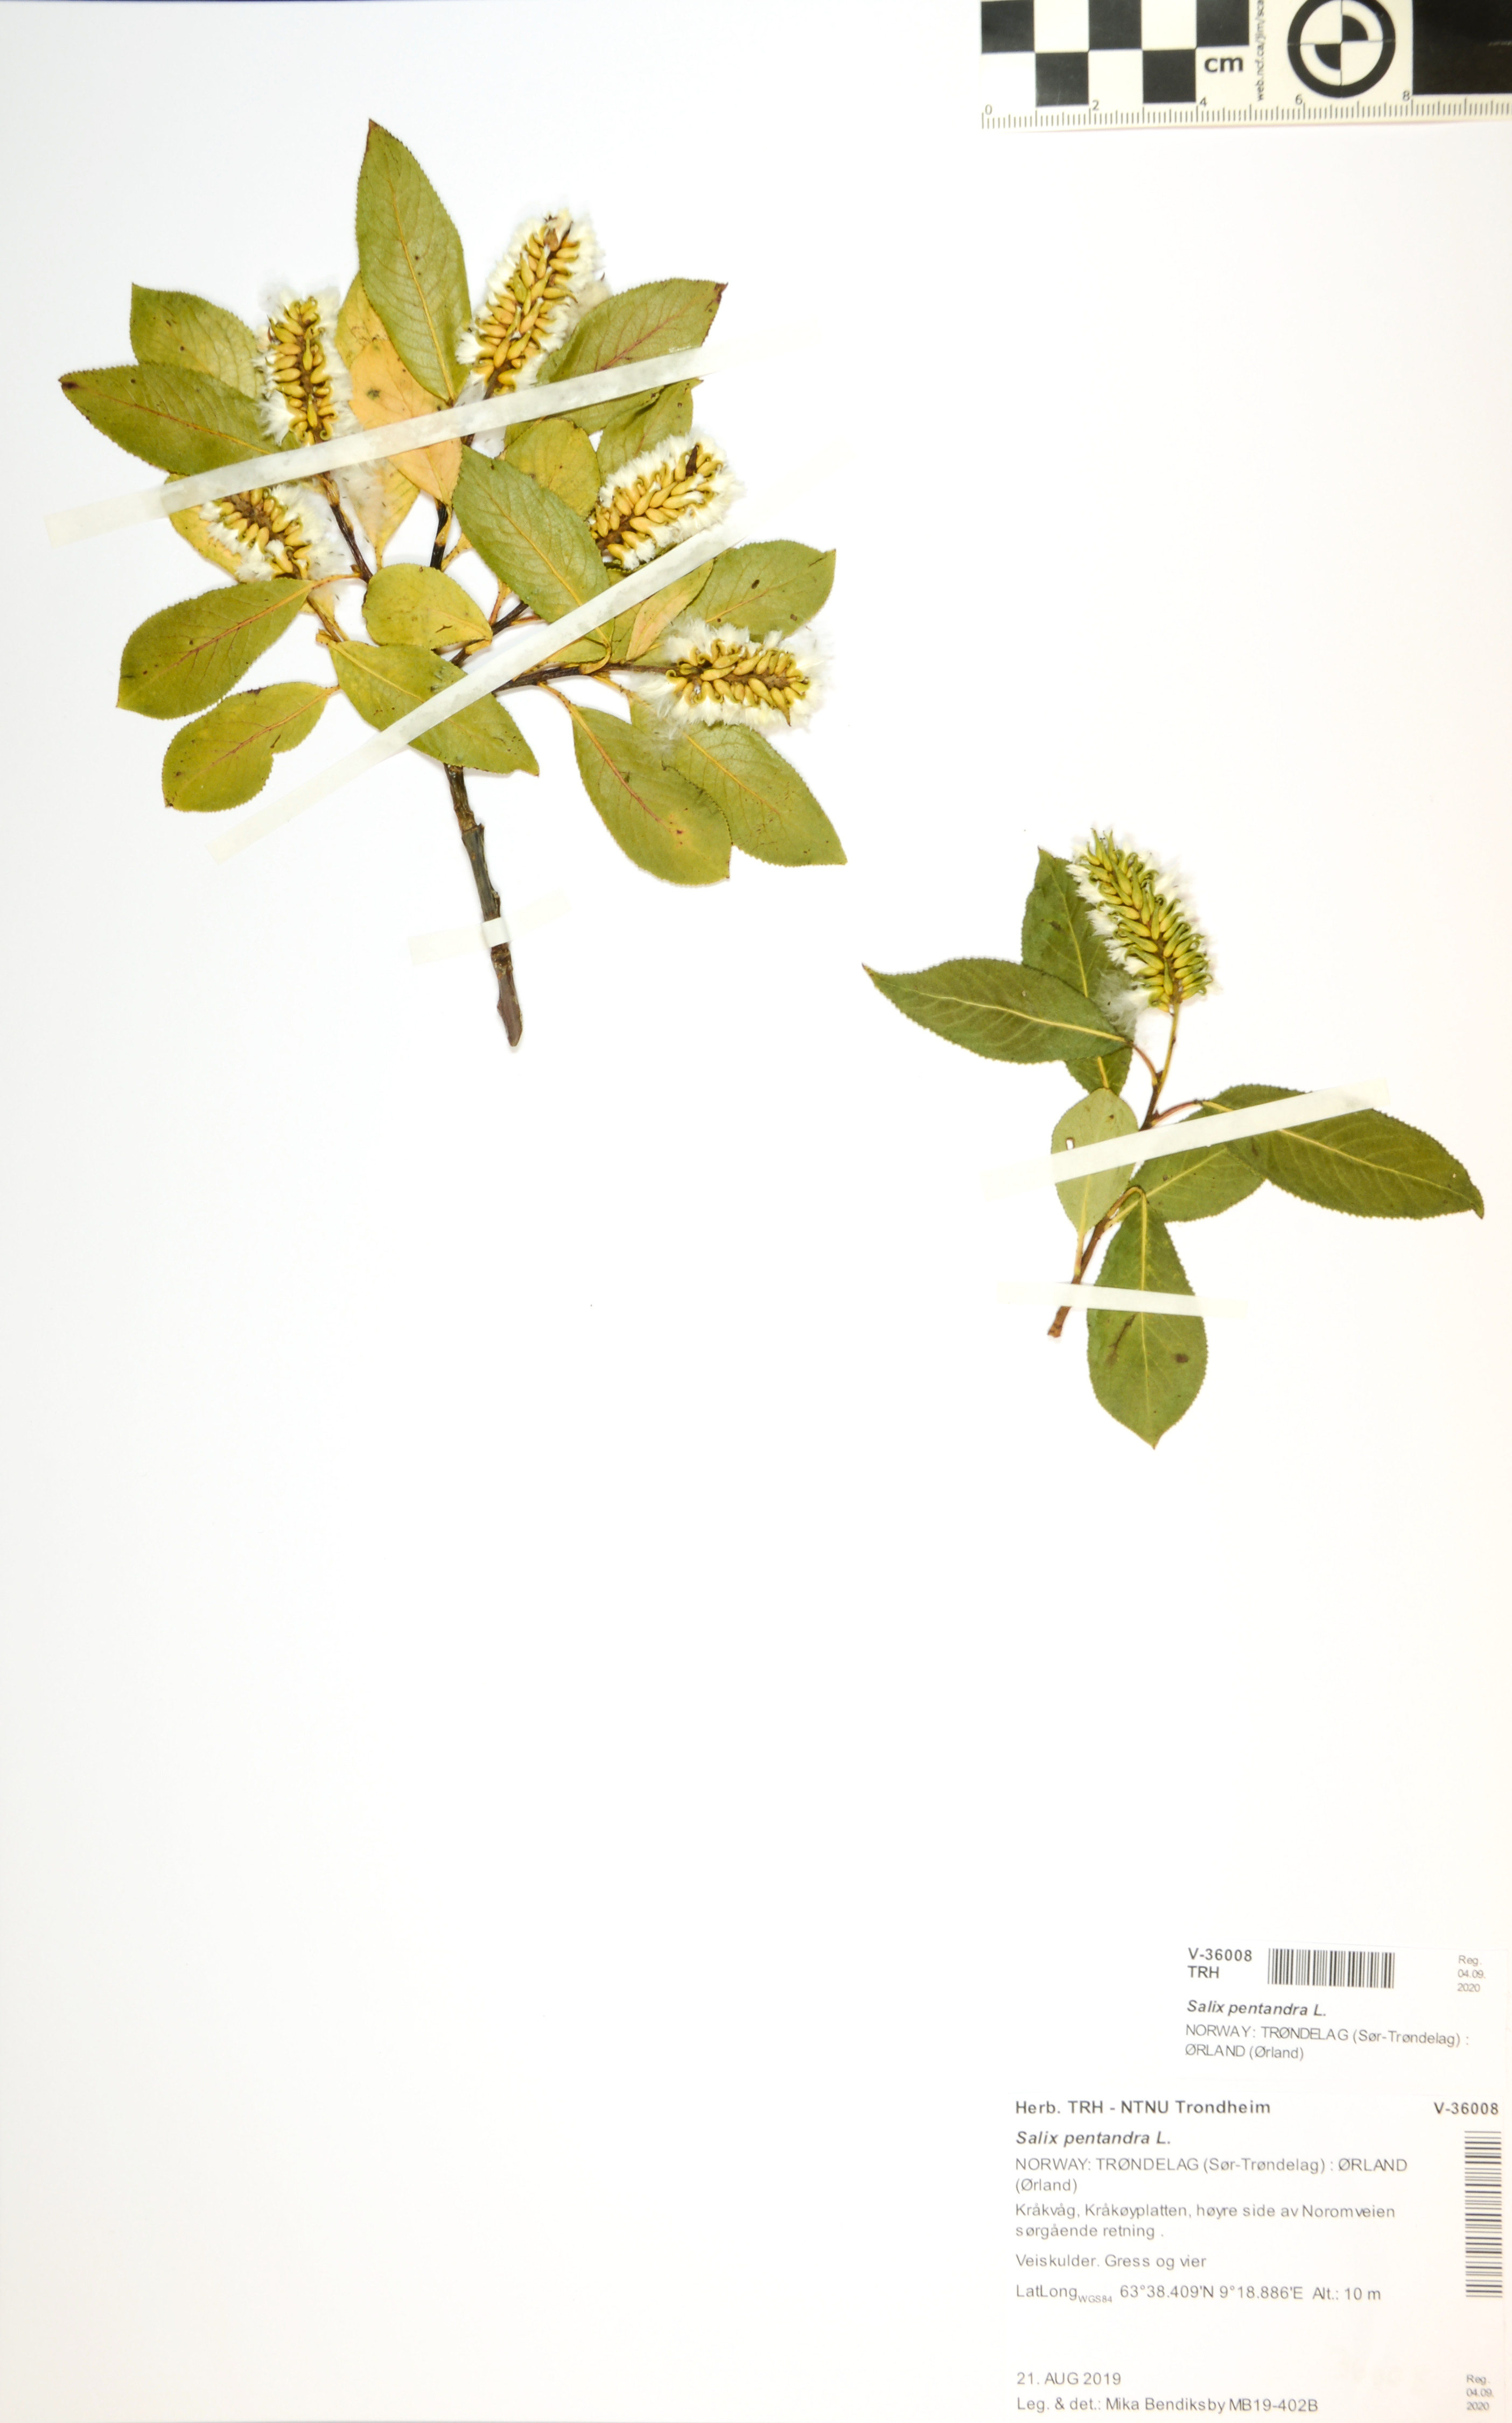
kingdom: Plantae
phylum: Tracheophyta
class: Magnoliopsida
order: Malpighiales
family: Salicaceae
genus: Salix
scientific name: Salix pentandra
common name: Bay willow
